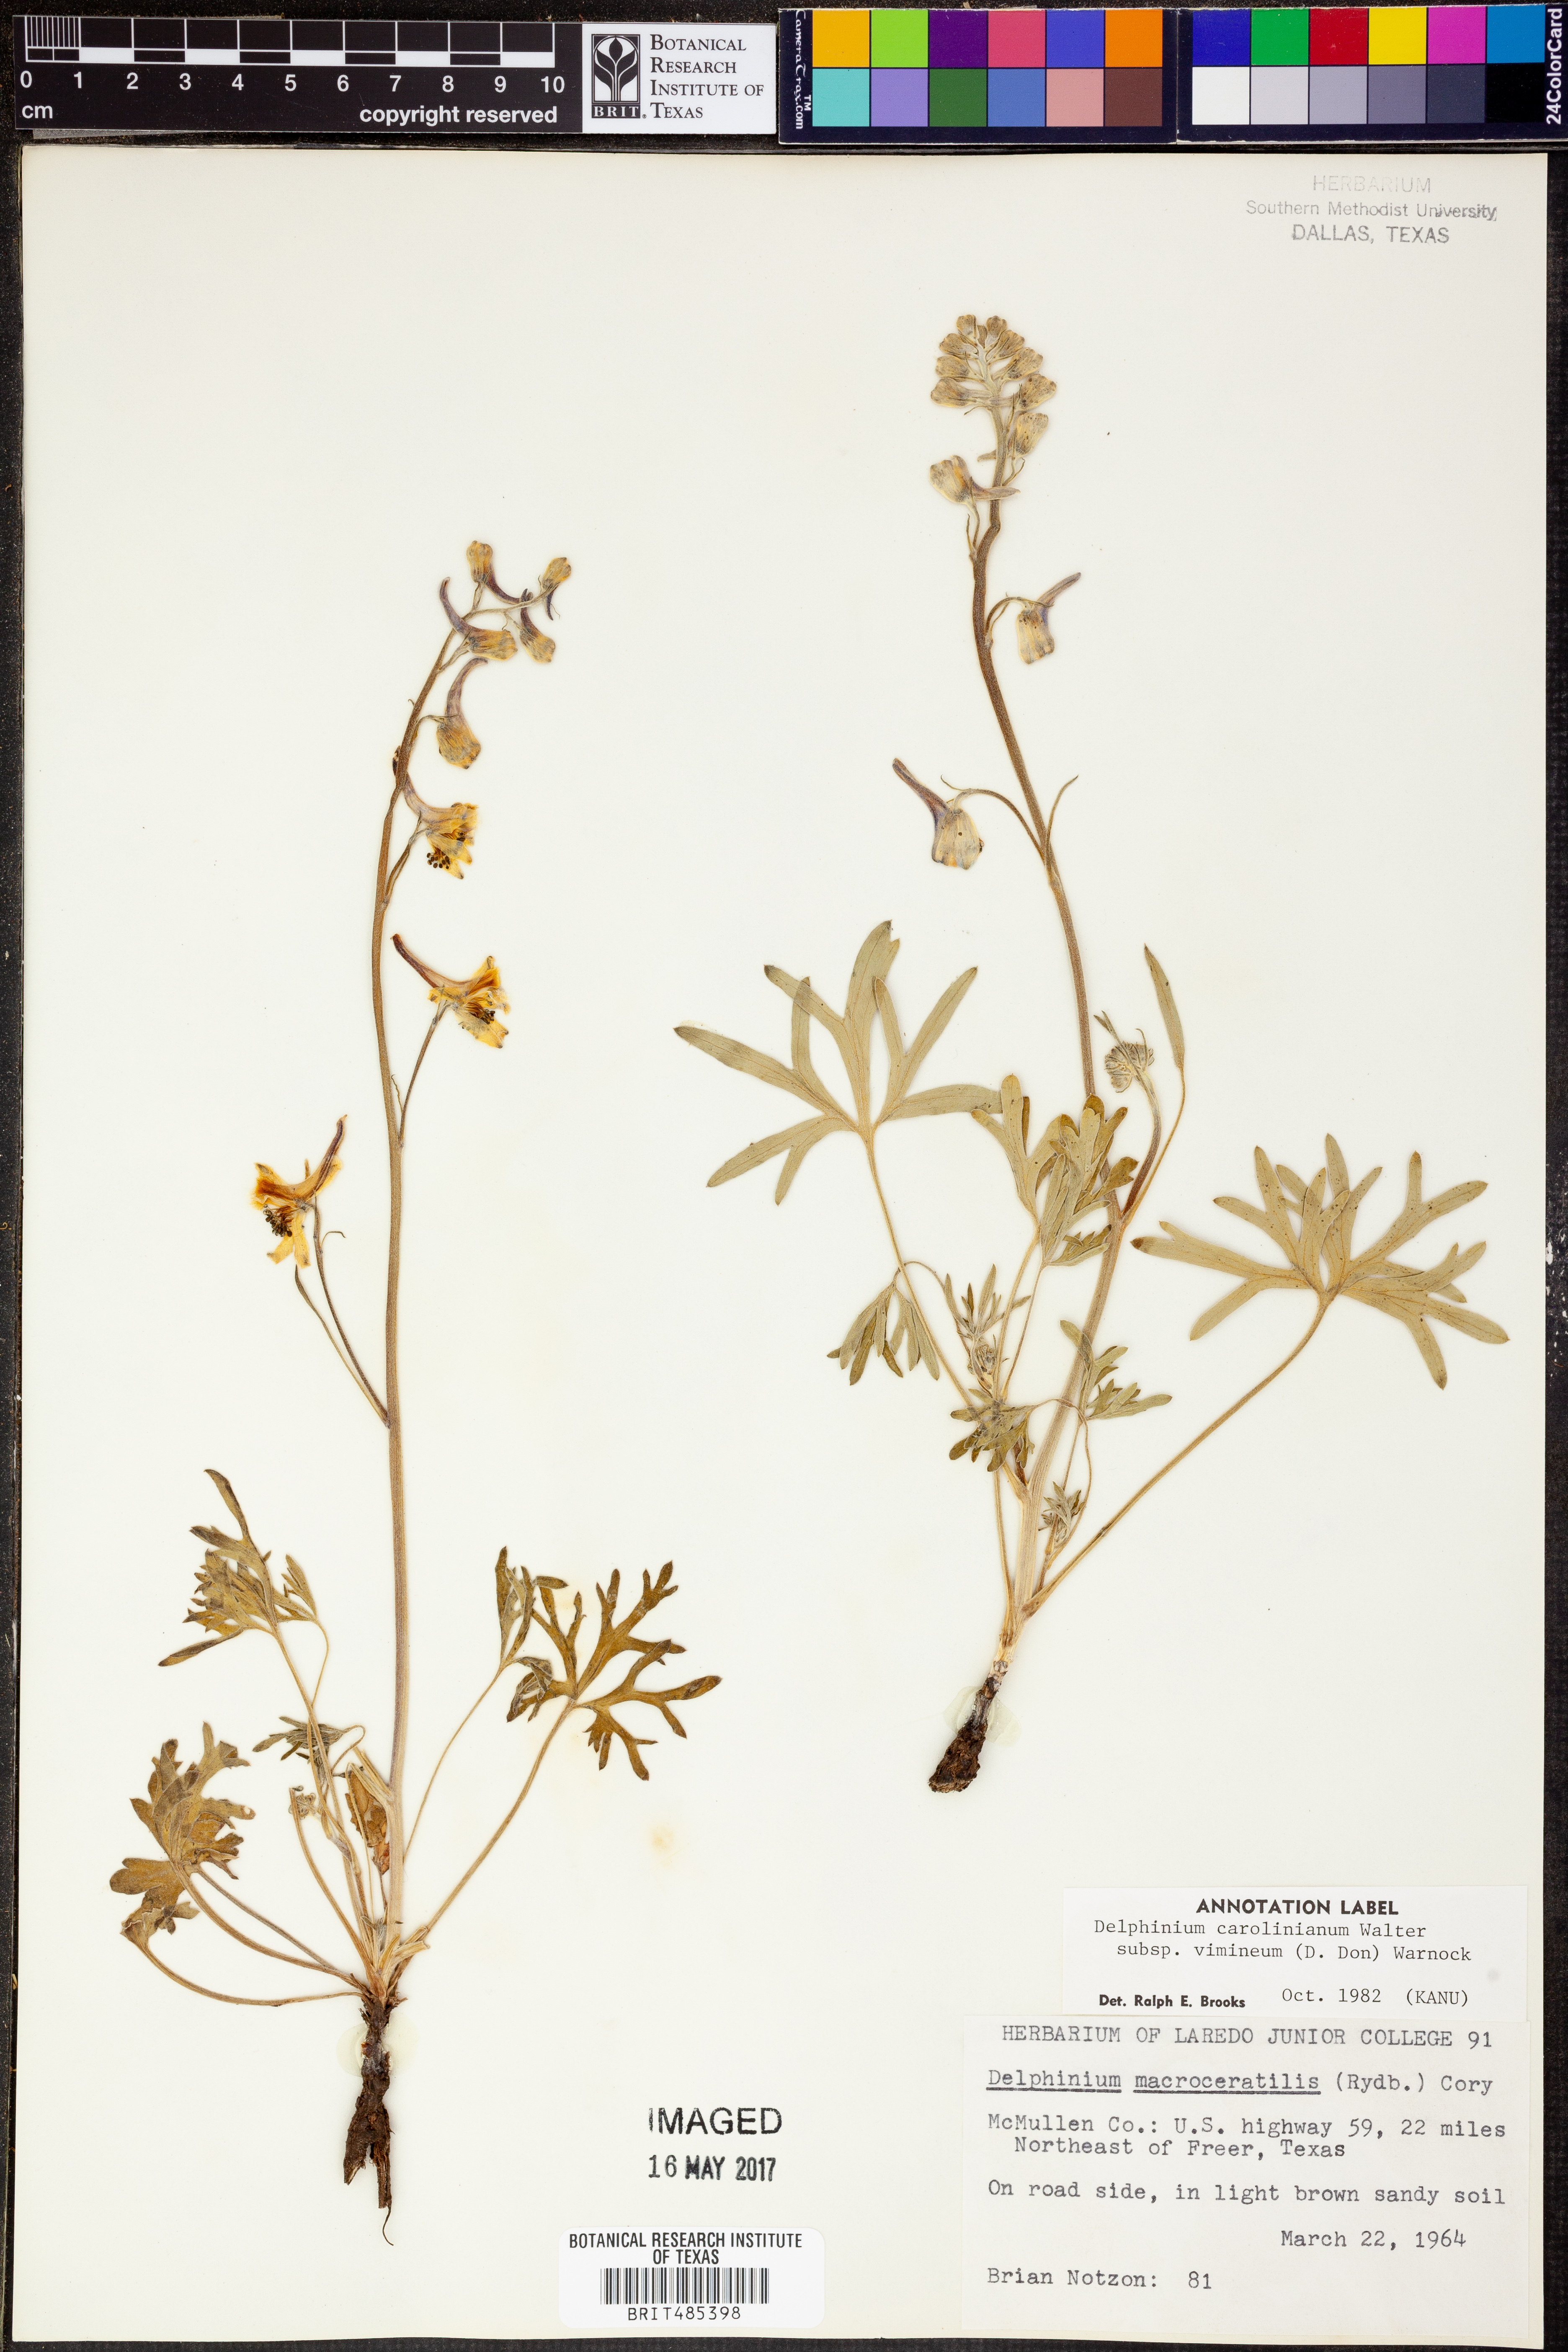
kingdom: Plantae
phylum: Tracheophyta
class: Magnoliopsida
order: Ranunculales
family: Ranunculaceae
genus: Delphinium
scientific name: Delphinium carolinianum
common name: Carolina larkspur
